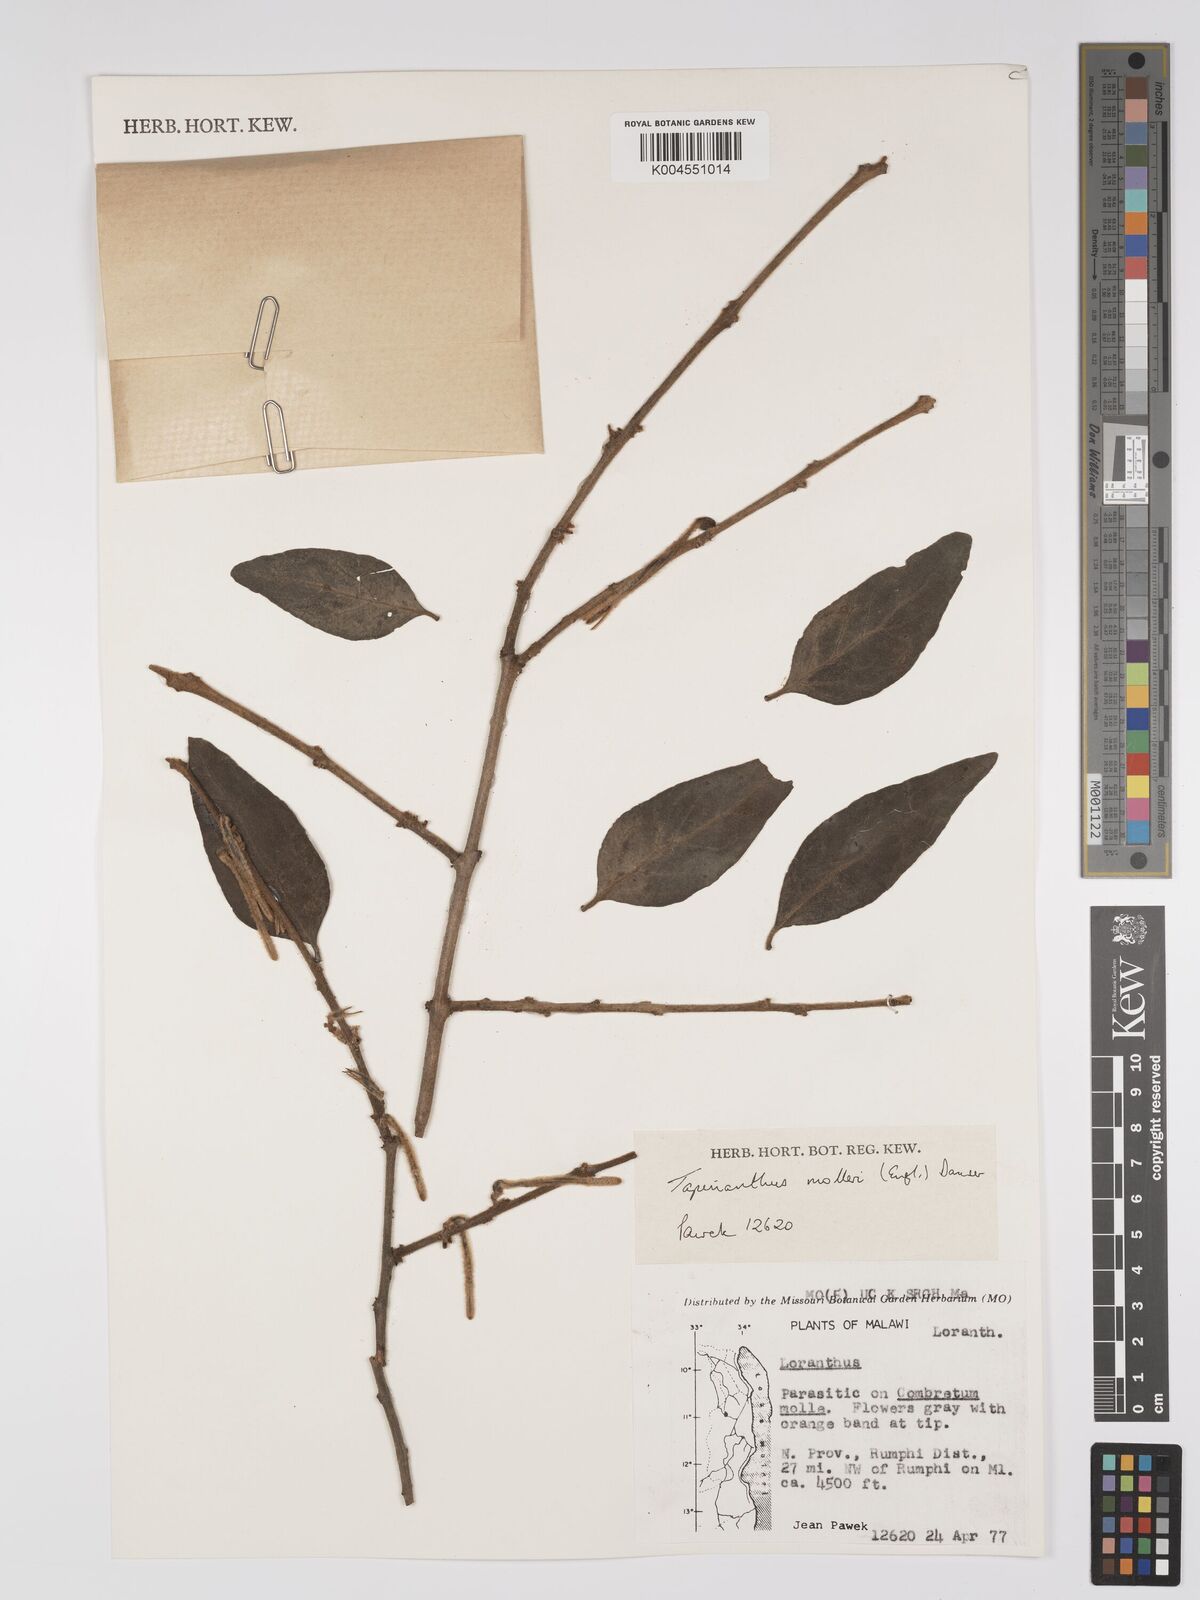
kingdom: Plantae
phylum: Tracheophyta
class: Magnoliopsida
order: Santalales
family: Loranthaceae
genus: Agelanthus
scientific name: Agelanthus molleri
